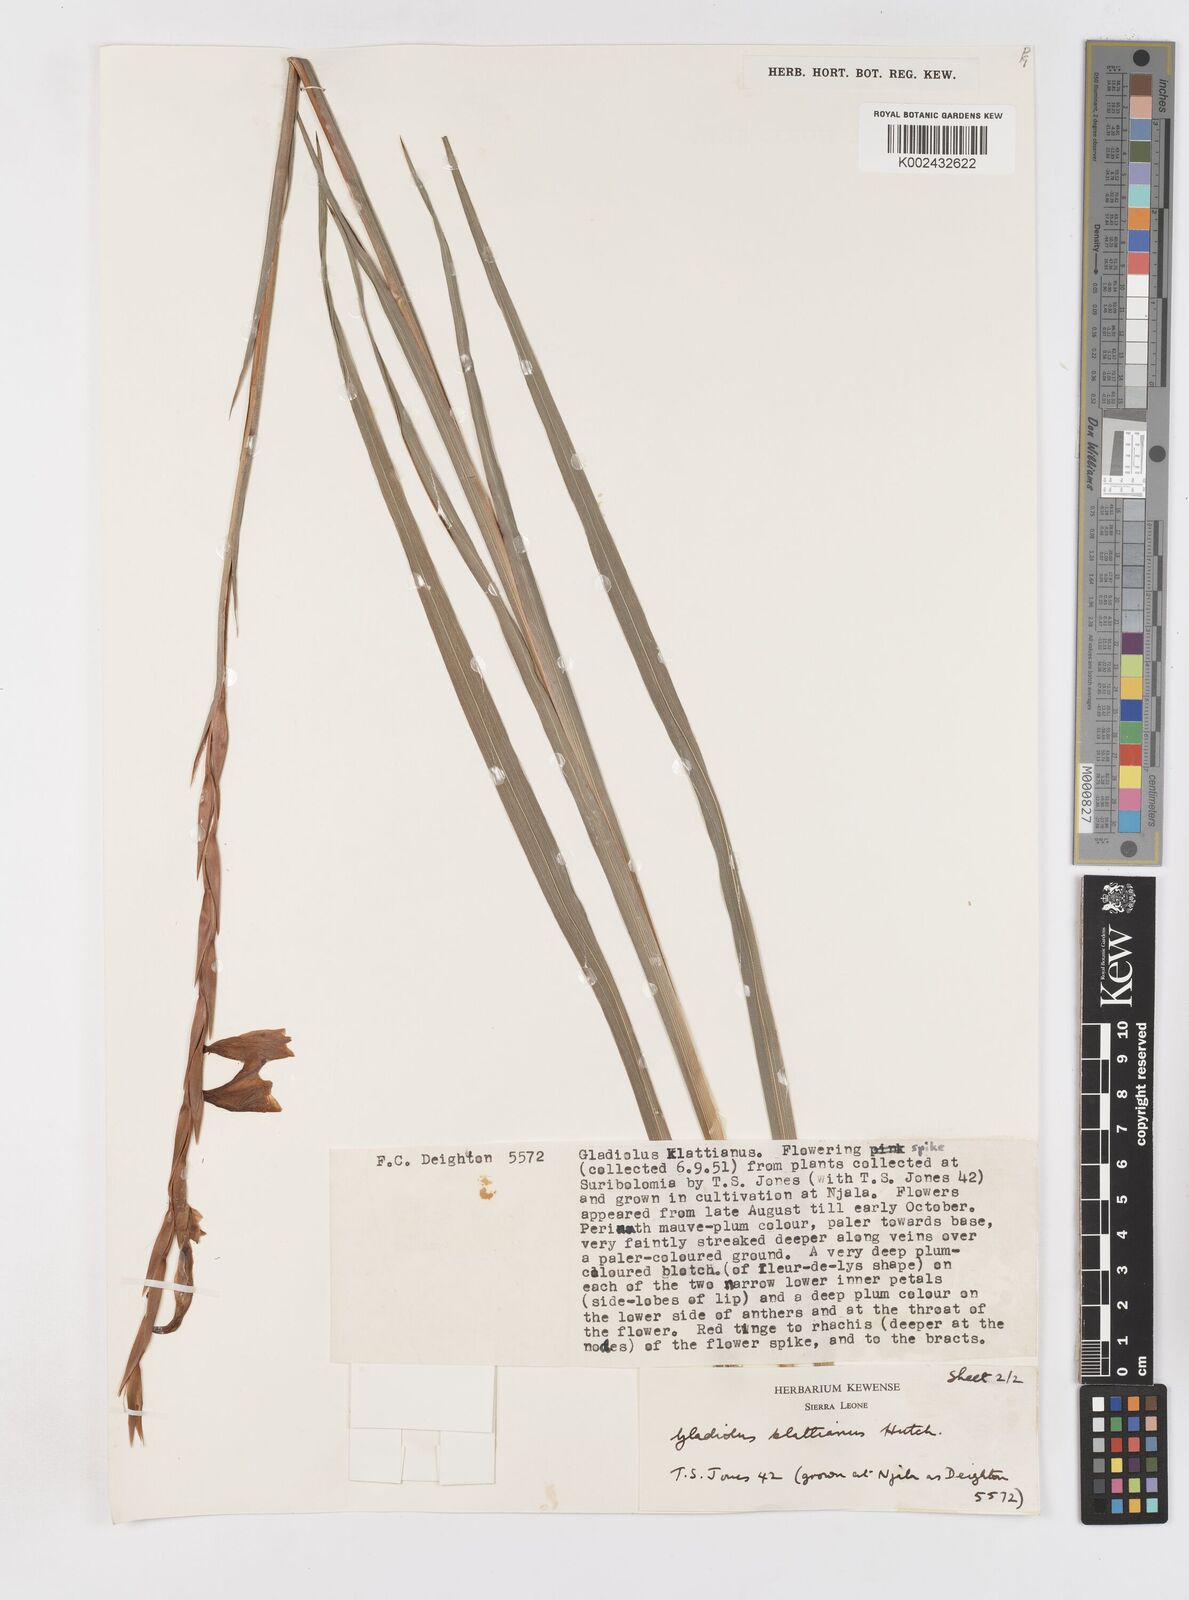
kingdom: Plantae
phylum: Tracheophyta
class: Liliopsida
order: Asparagales
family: Iridaceae
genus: Gladiolus
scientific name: Gladiolus gregarius
